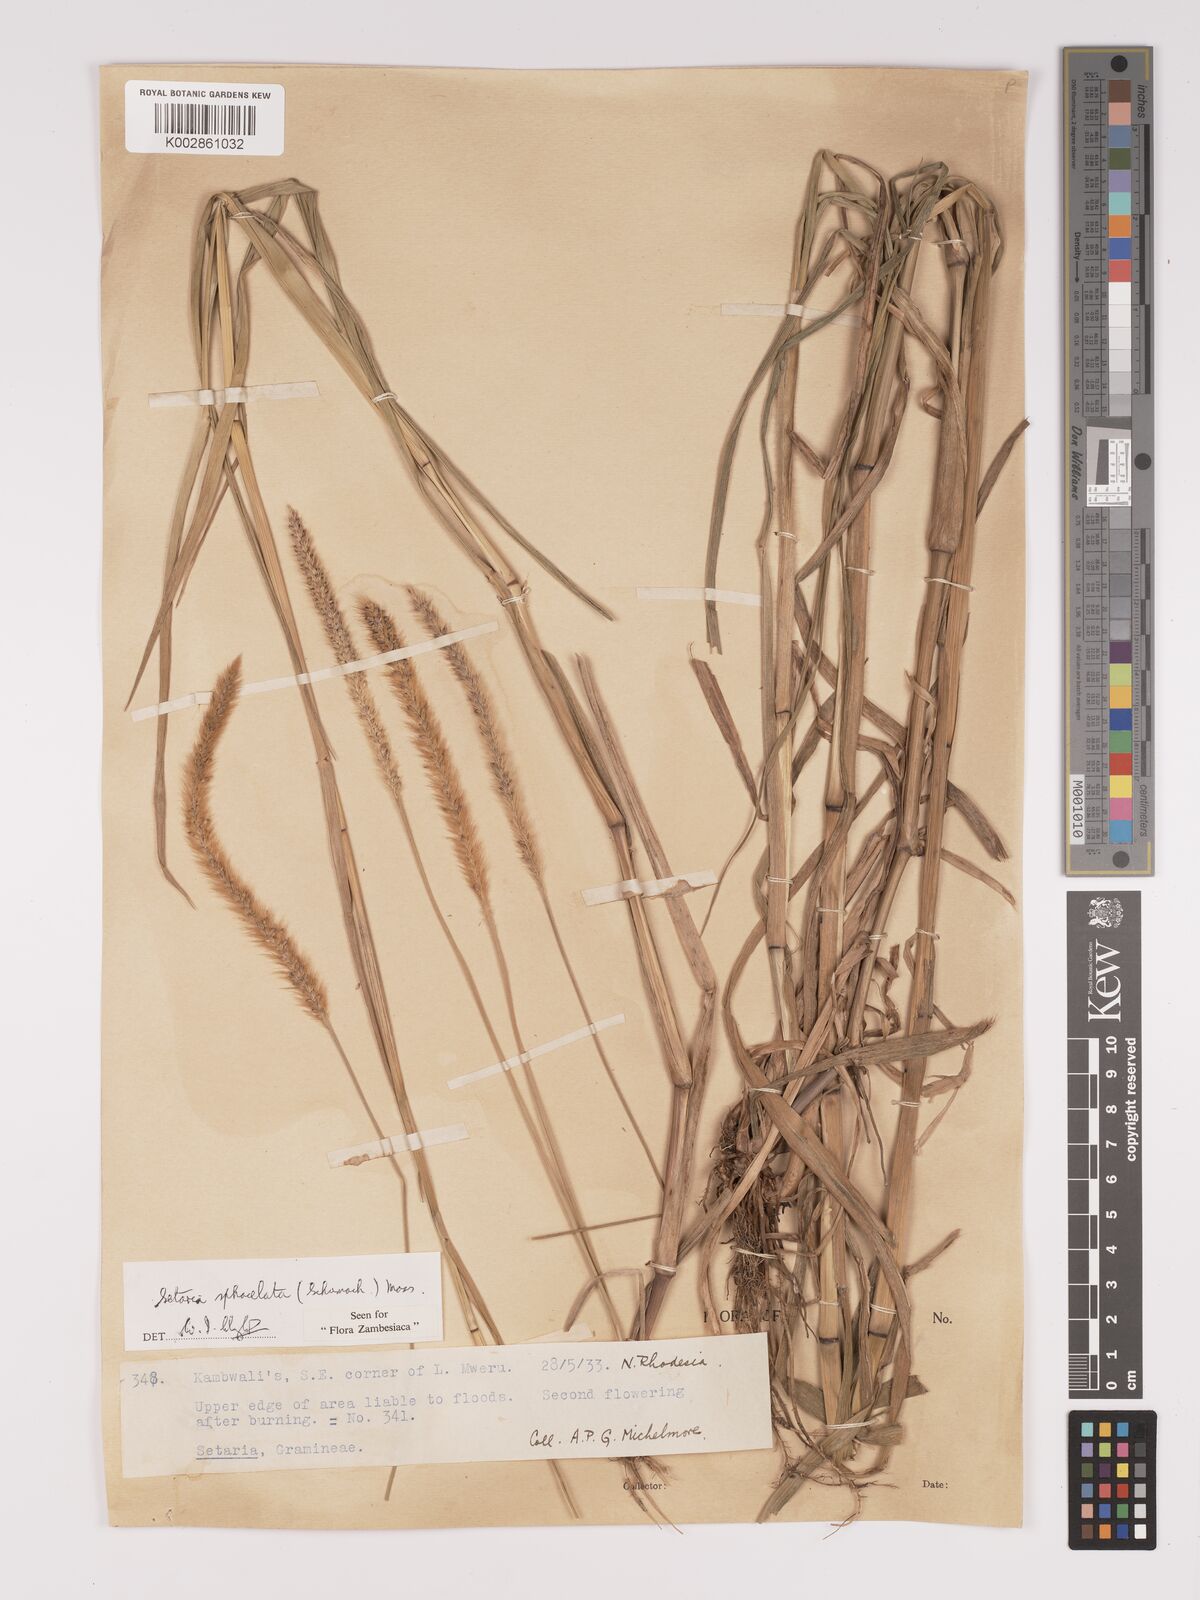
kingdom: Plantae
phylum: Tracheophyta
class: Liliopsida
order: Poales
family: Poaceae
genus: Setaria
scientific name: Setaria sphacelata
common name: African bristlegrass
